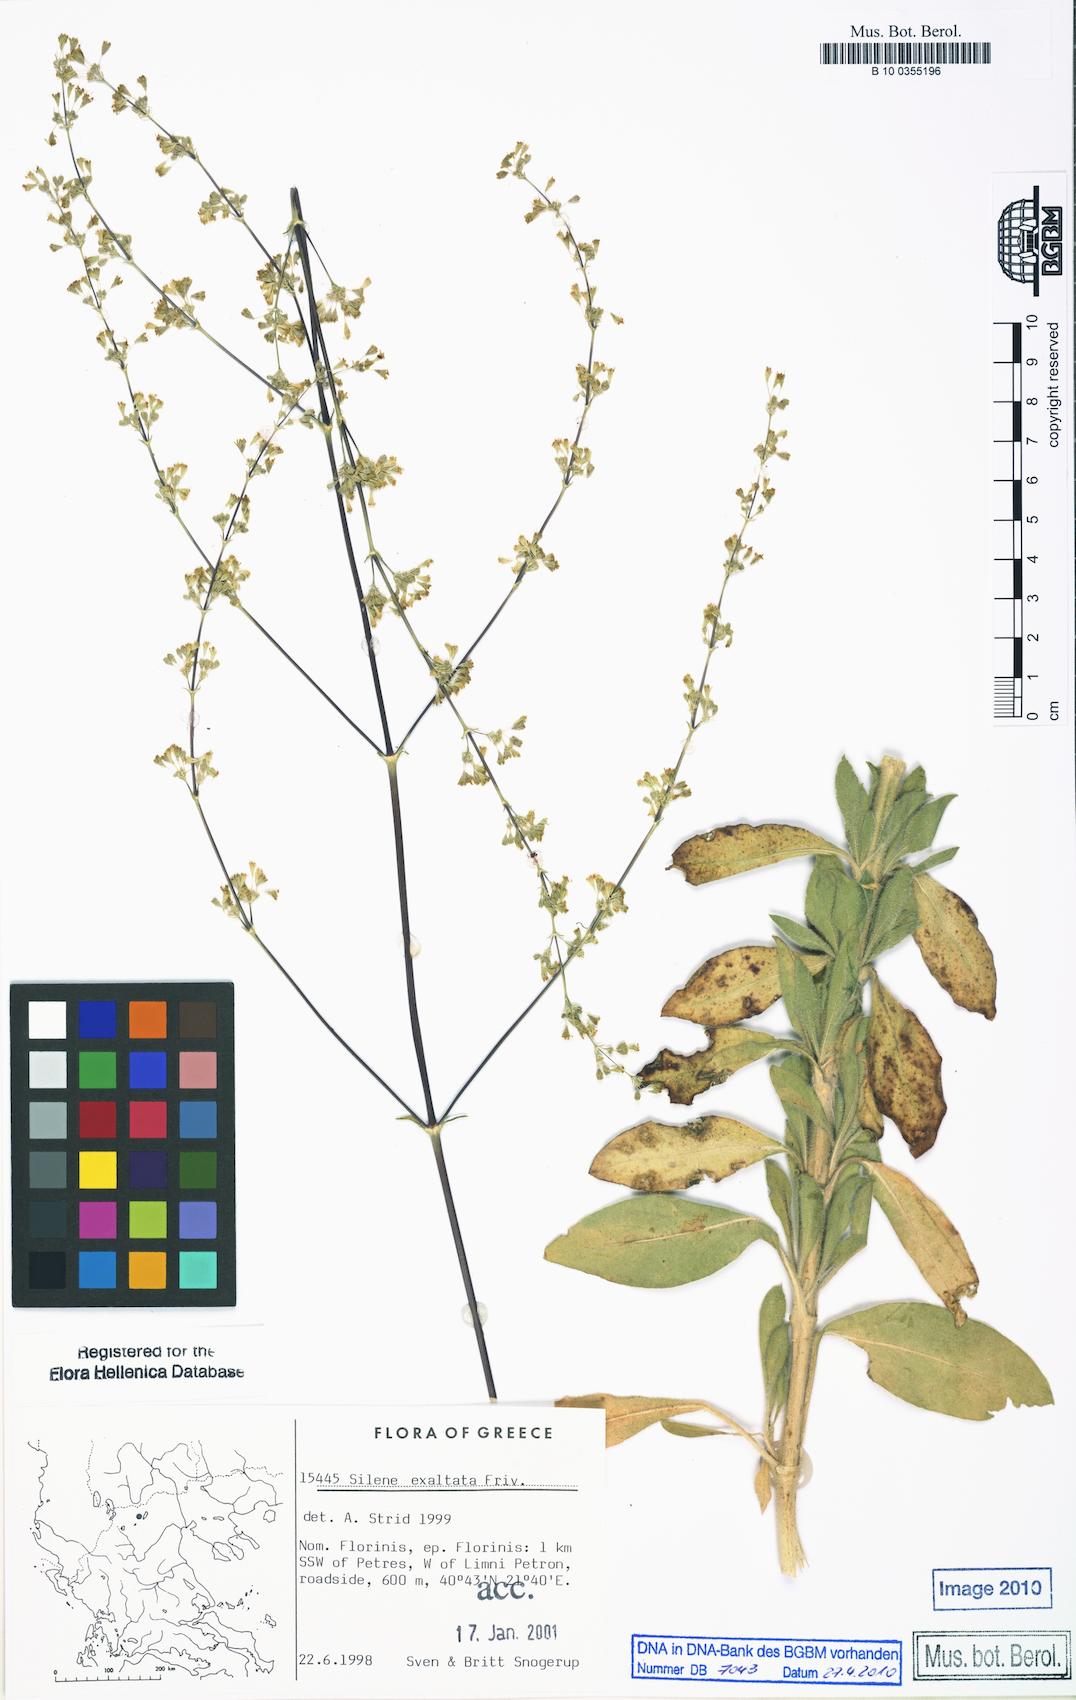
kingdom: Plantae
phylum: Tracheophyta
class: Magnoliopsida
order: Caryophyllales
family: Caryophyllaceae
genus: Silene
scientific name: Silene densiflora
